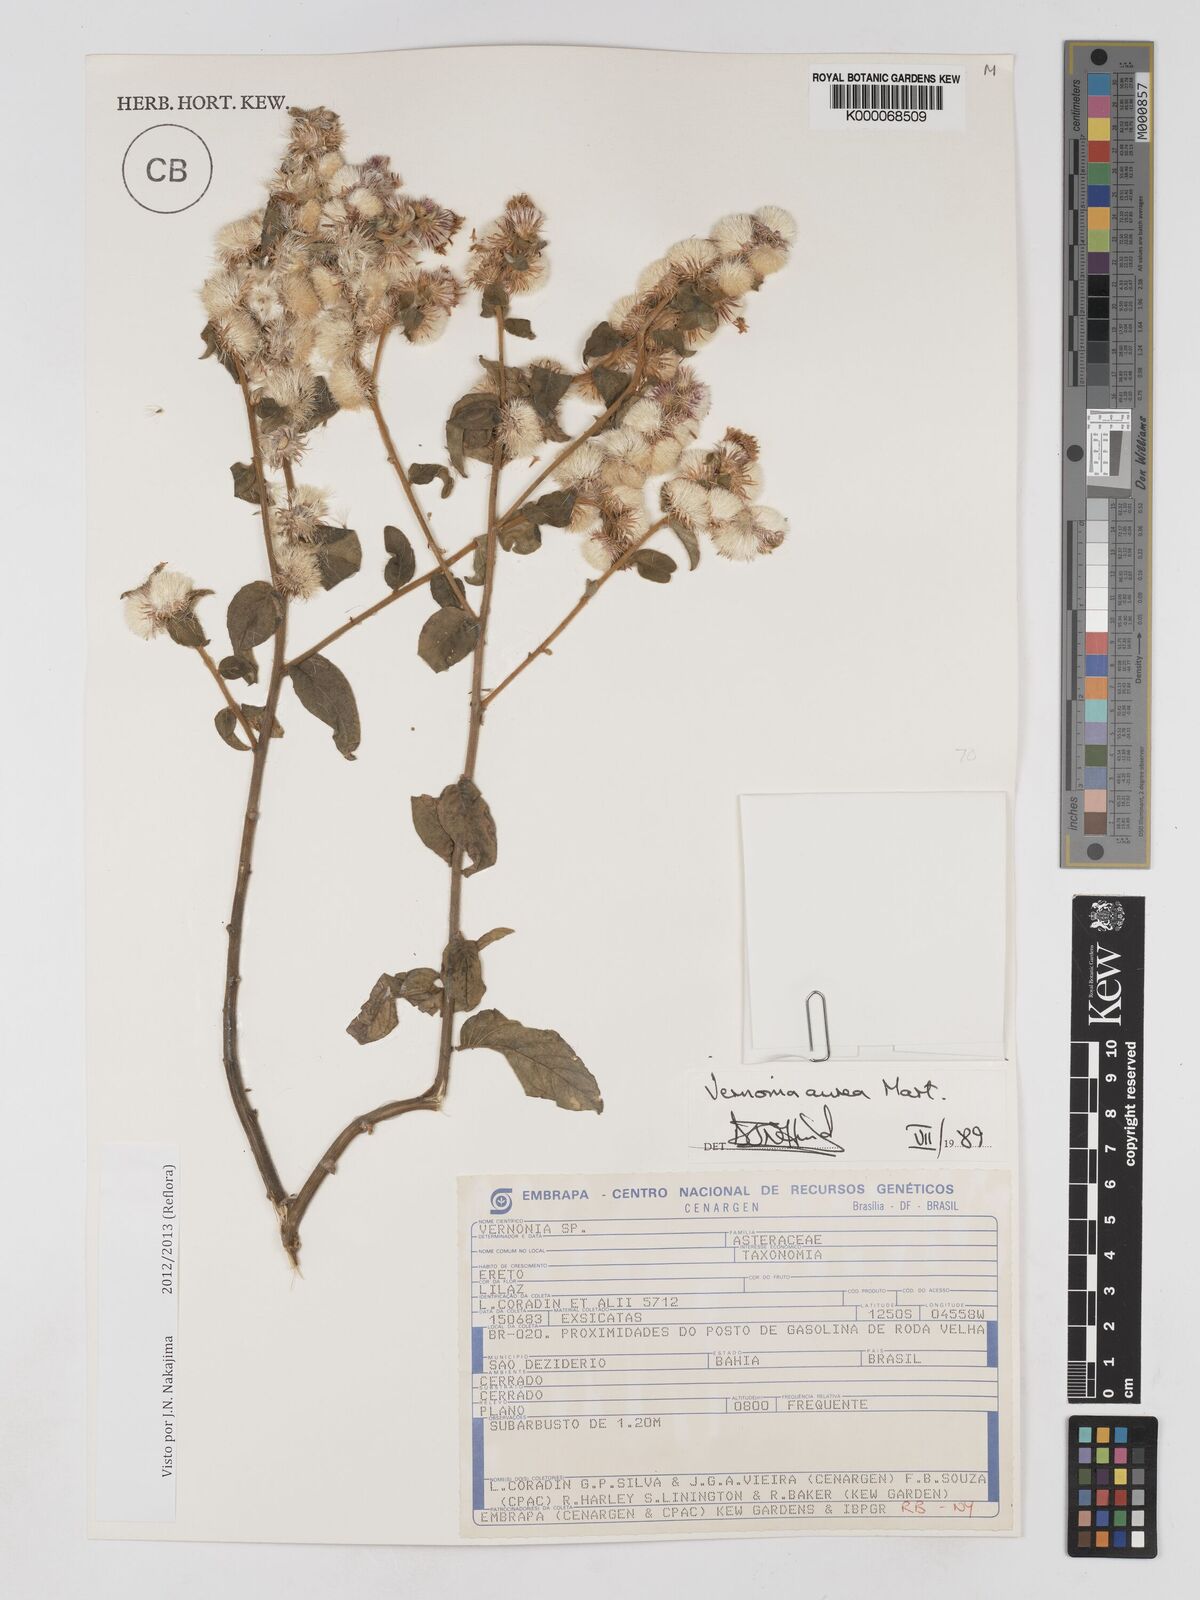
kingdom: Plantae
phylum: Tracheophyta
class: Magnoliopsida
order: Asterales
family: Asteraceae
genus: Lepidaploa
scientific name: Lepidaploa aurea
